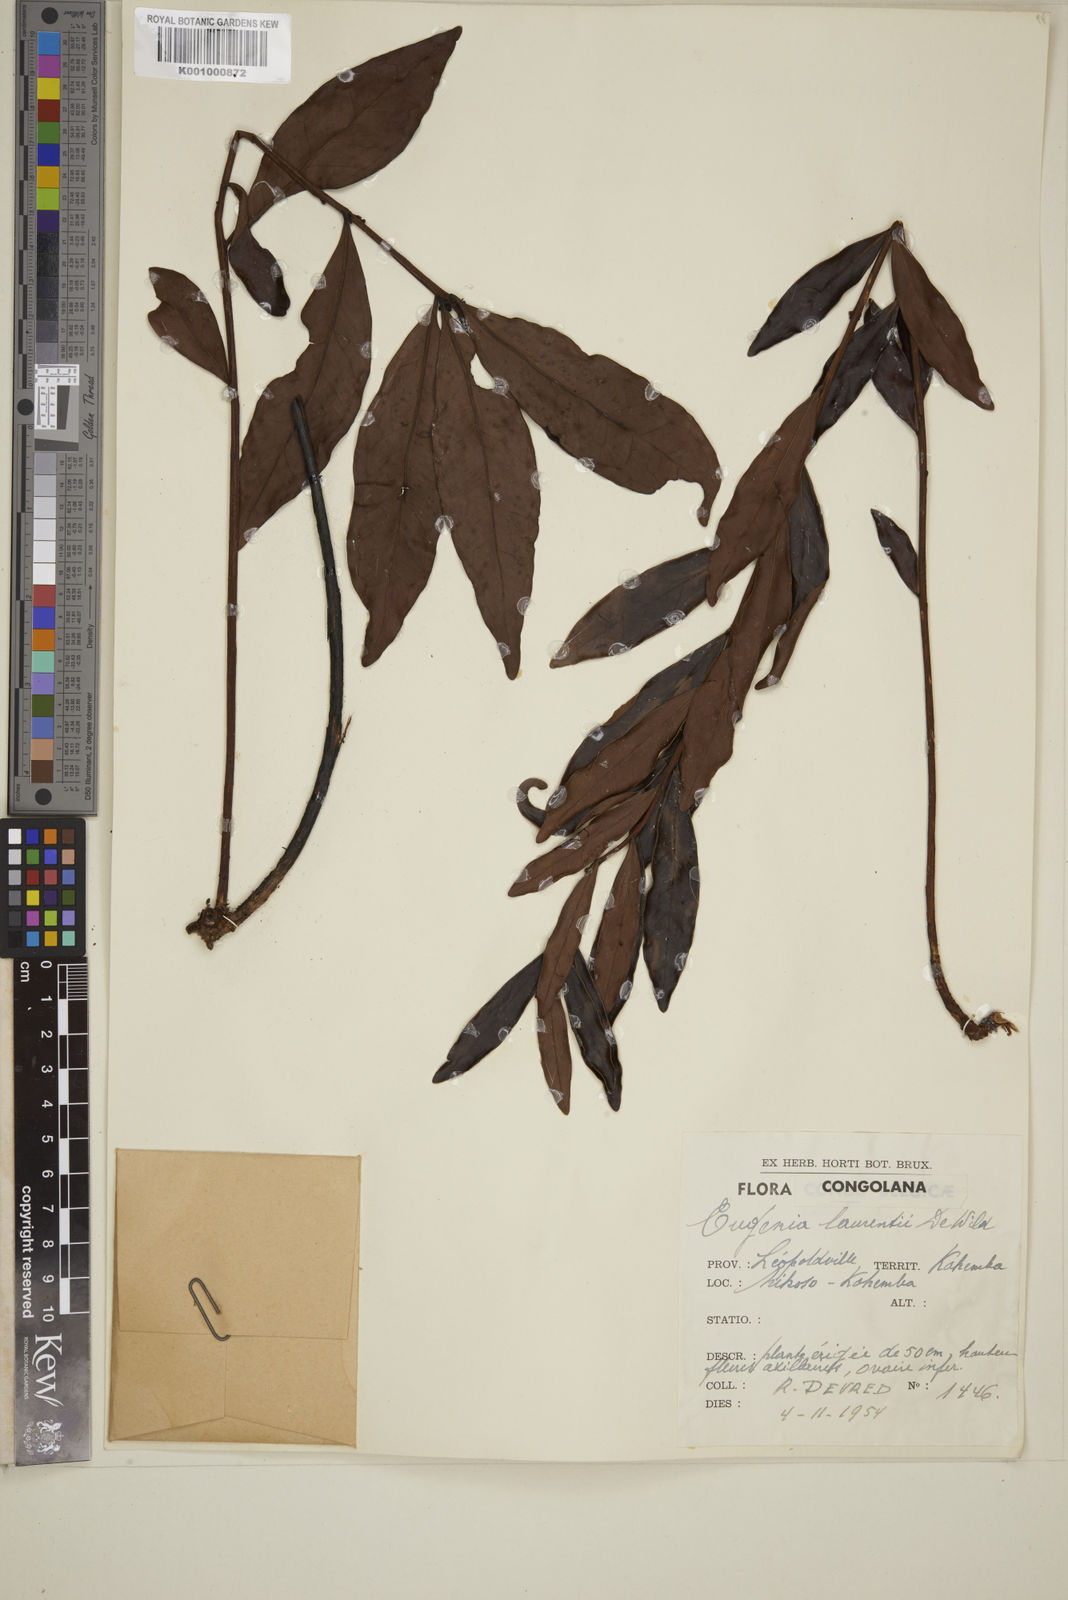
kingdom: Plantae
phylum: Tracheophyta
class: Magnoliopsida
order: Myrtales
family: Myrtaceae
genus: Eugenia
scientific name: Eugenia malangensis
